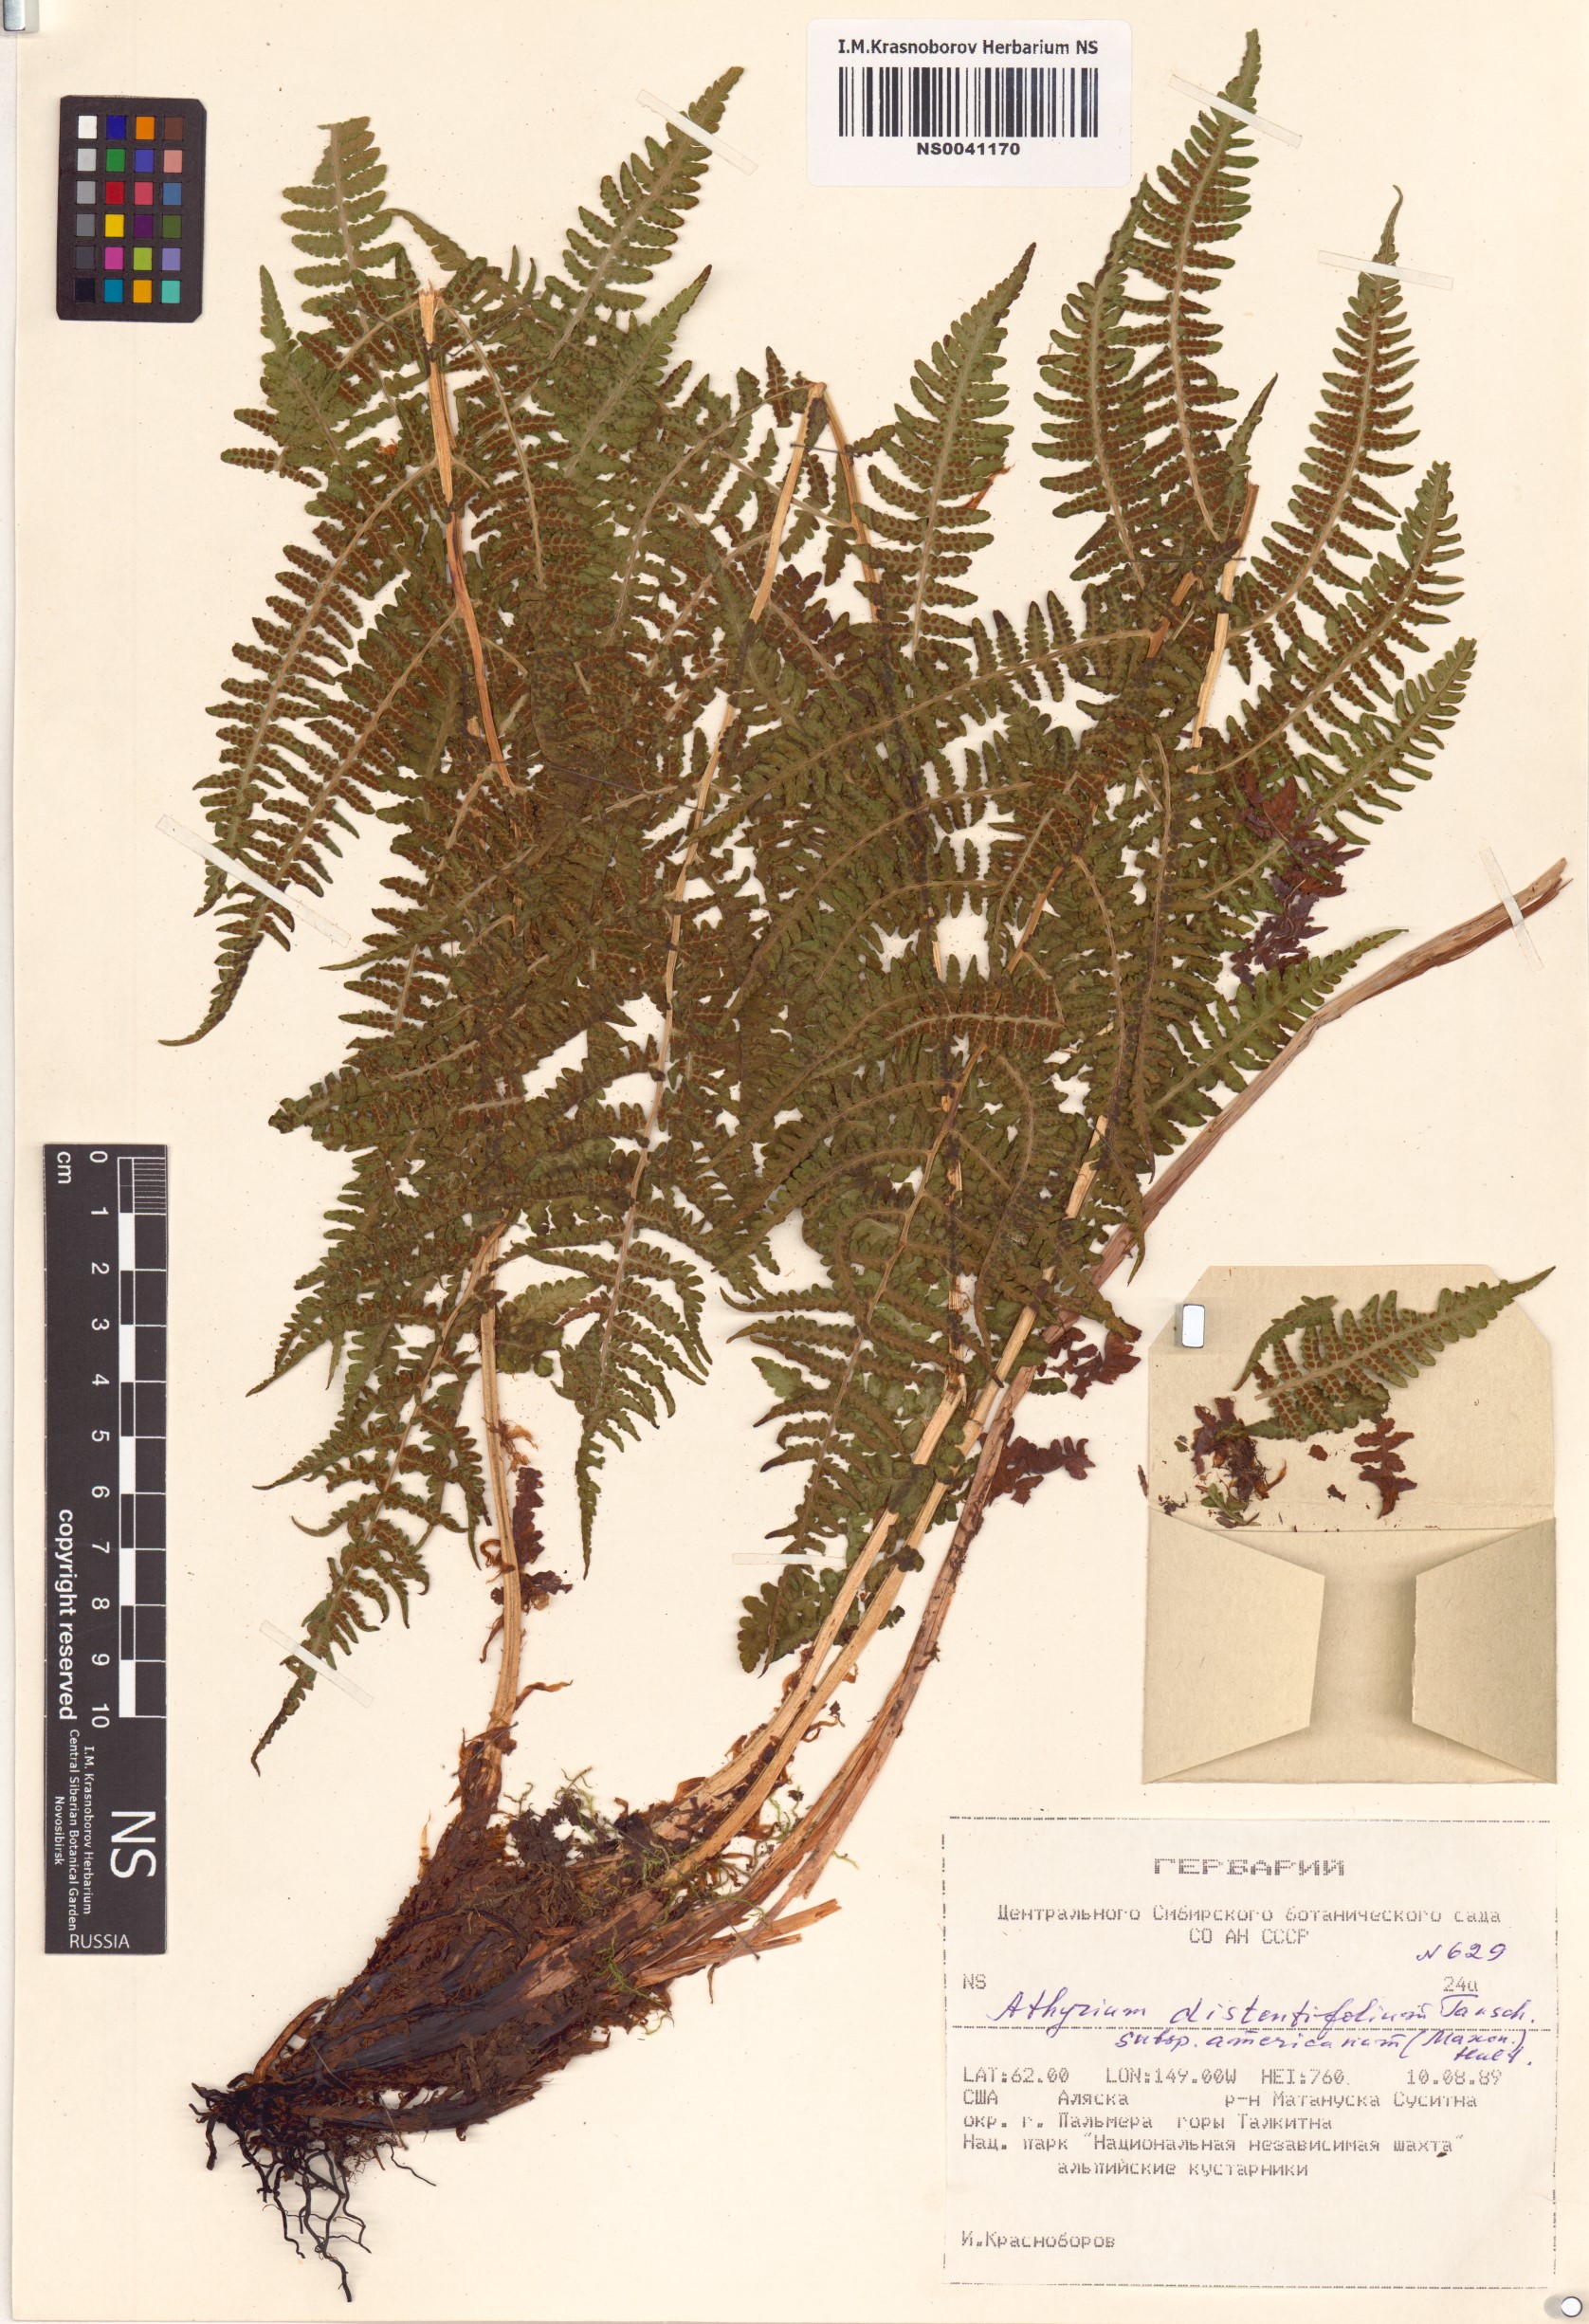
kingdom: Plantae
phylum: Tracheophyta
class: Polypodiopsida
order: Polypodiales
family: Athyriaceae
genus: Athyrium
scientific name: Athyrium americanum
